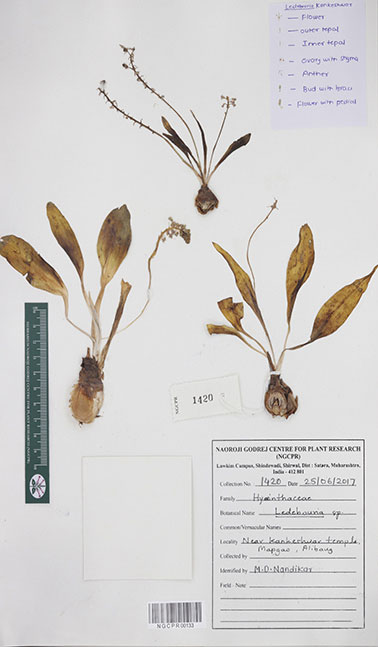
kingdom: Plantae
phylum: Tracheophyta
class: Liliopsida
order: Asparagales
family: Asparagaceae
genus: Ledebouria
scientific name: Ledebouria
